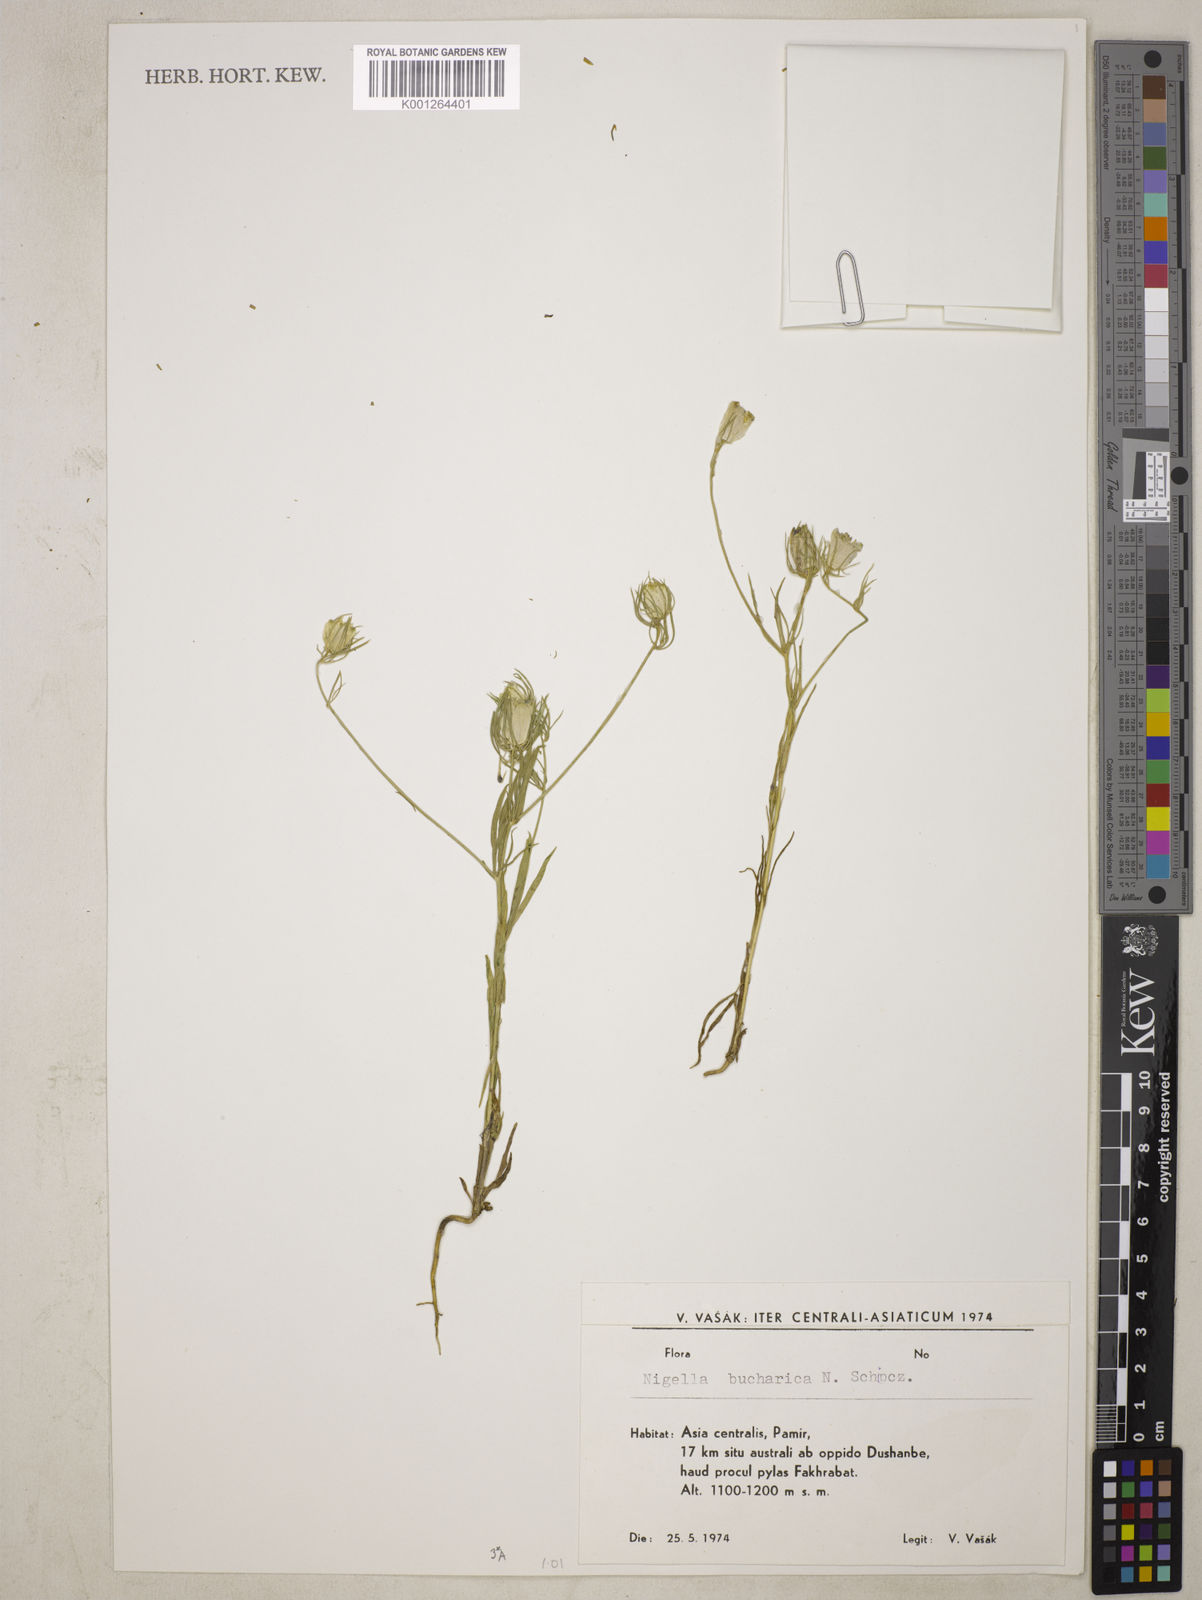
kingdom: Plantae
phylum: Tracheophyta
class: Magnoliopsida
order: Ranunculales
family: Ranunculaceae
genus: Komaroffia
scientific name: Komaroffia bucharica
